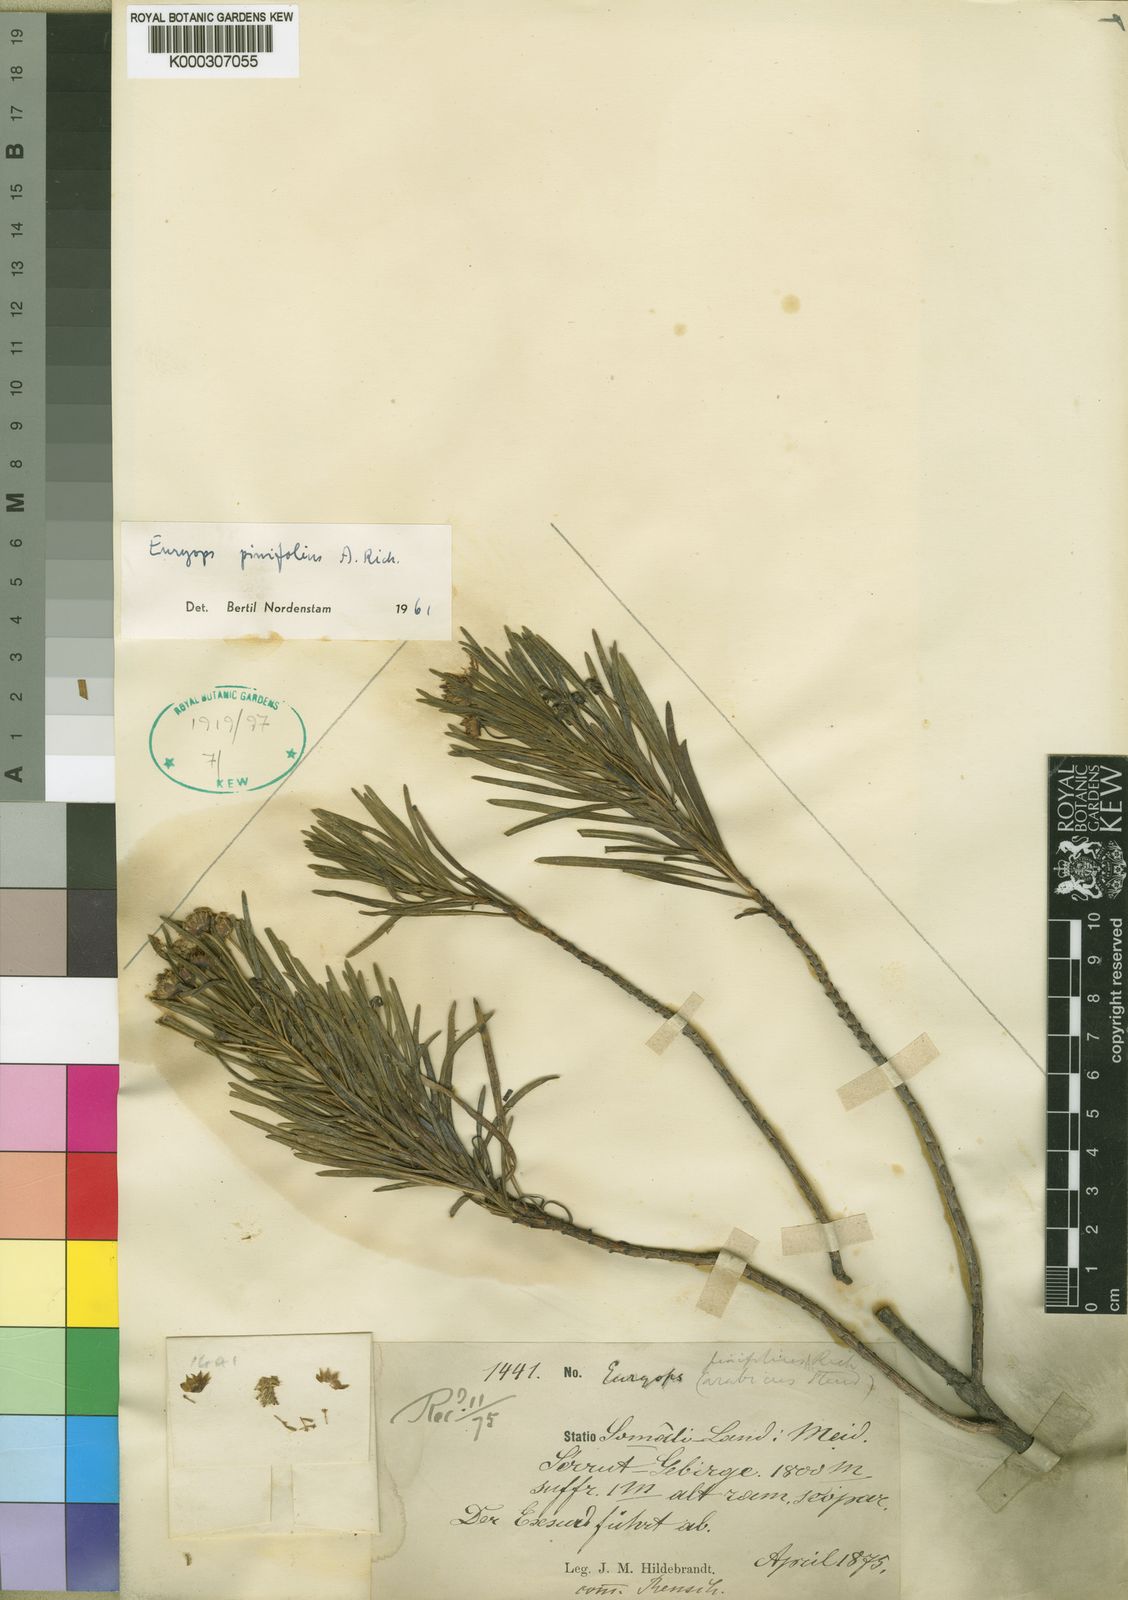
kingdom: Plantae
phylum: Tracheophyta
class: Magnoliopsida
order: Asterales
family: Asteraceae
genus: Euryops
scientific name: Euryops
